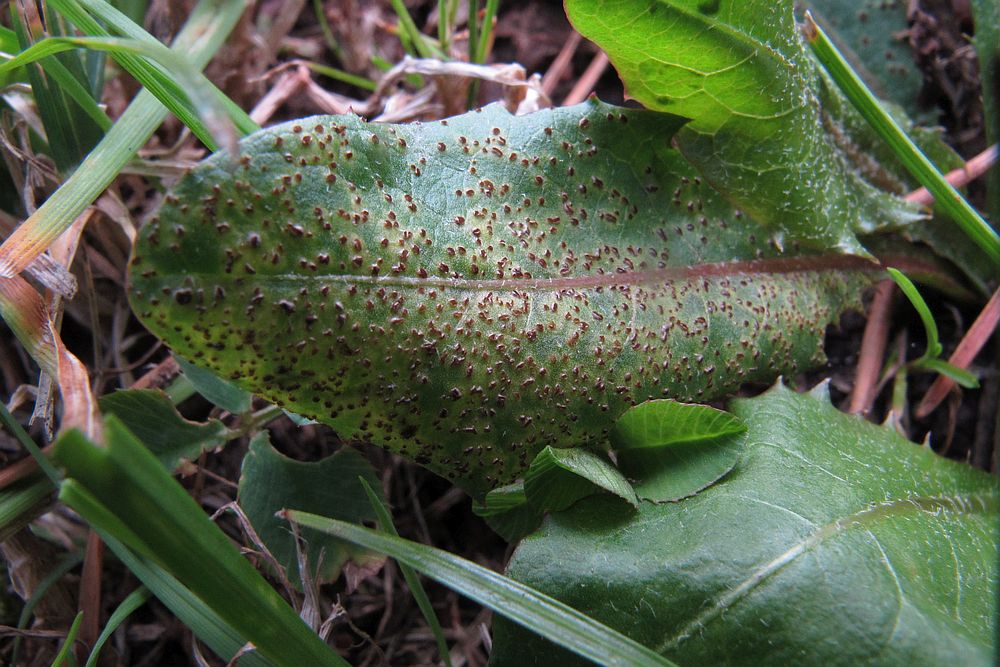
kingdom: Fungi
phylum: Basidiomycota
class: Pucciniomycetes
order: Pucciniales
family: Pucciniaceae
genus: Puccinia
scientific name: Puccinia variabilis
